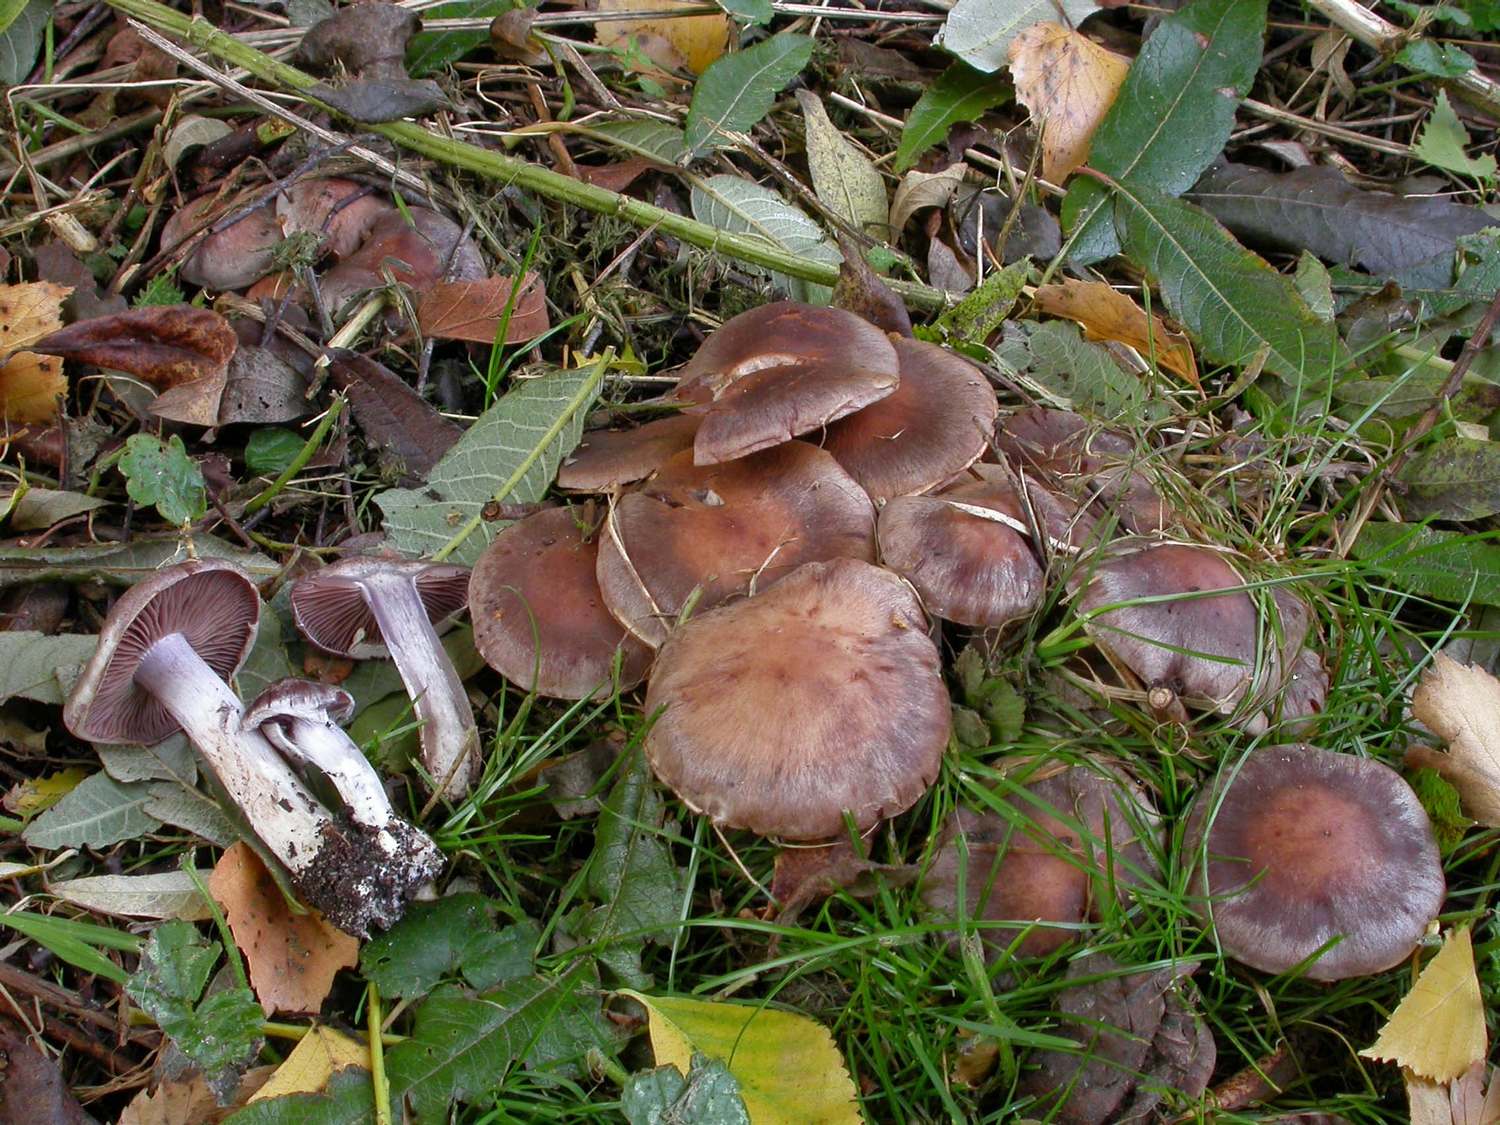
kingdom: Fungi
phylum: Basidiomycota
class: Agaricomycetes
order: Agaricales
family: Cortinariaceae
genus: Cortinarius
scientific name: Cortinarius saturninus
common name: brunviolet slørhat
